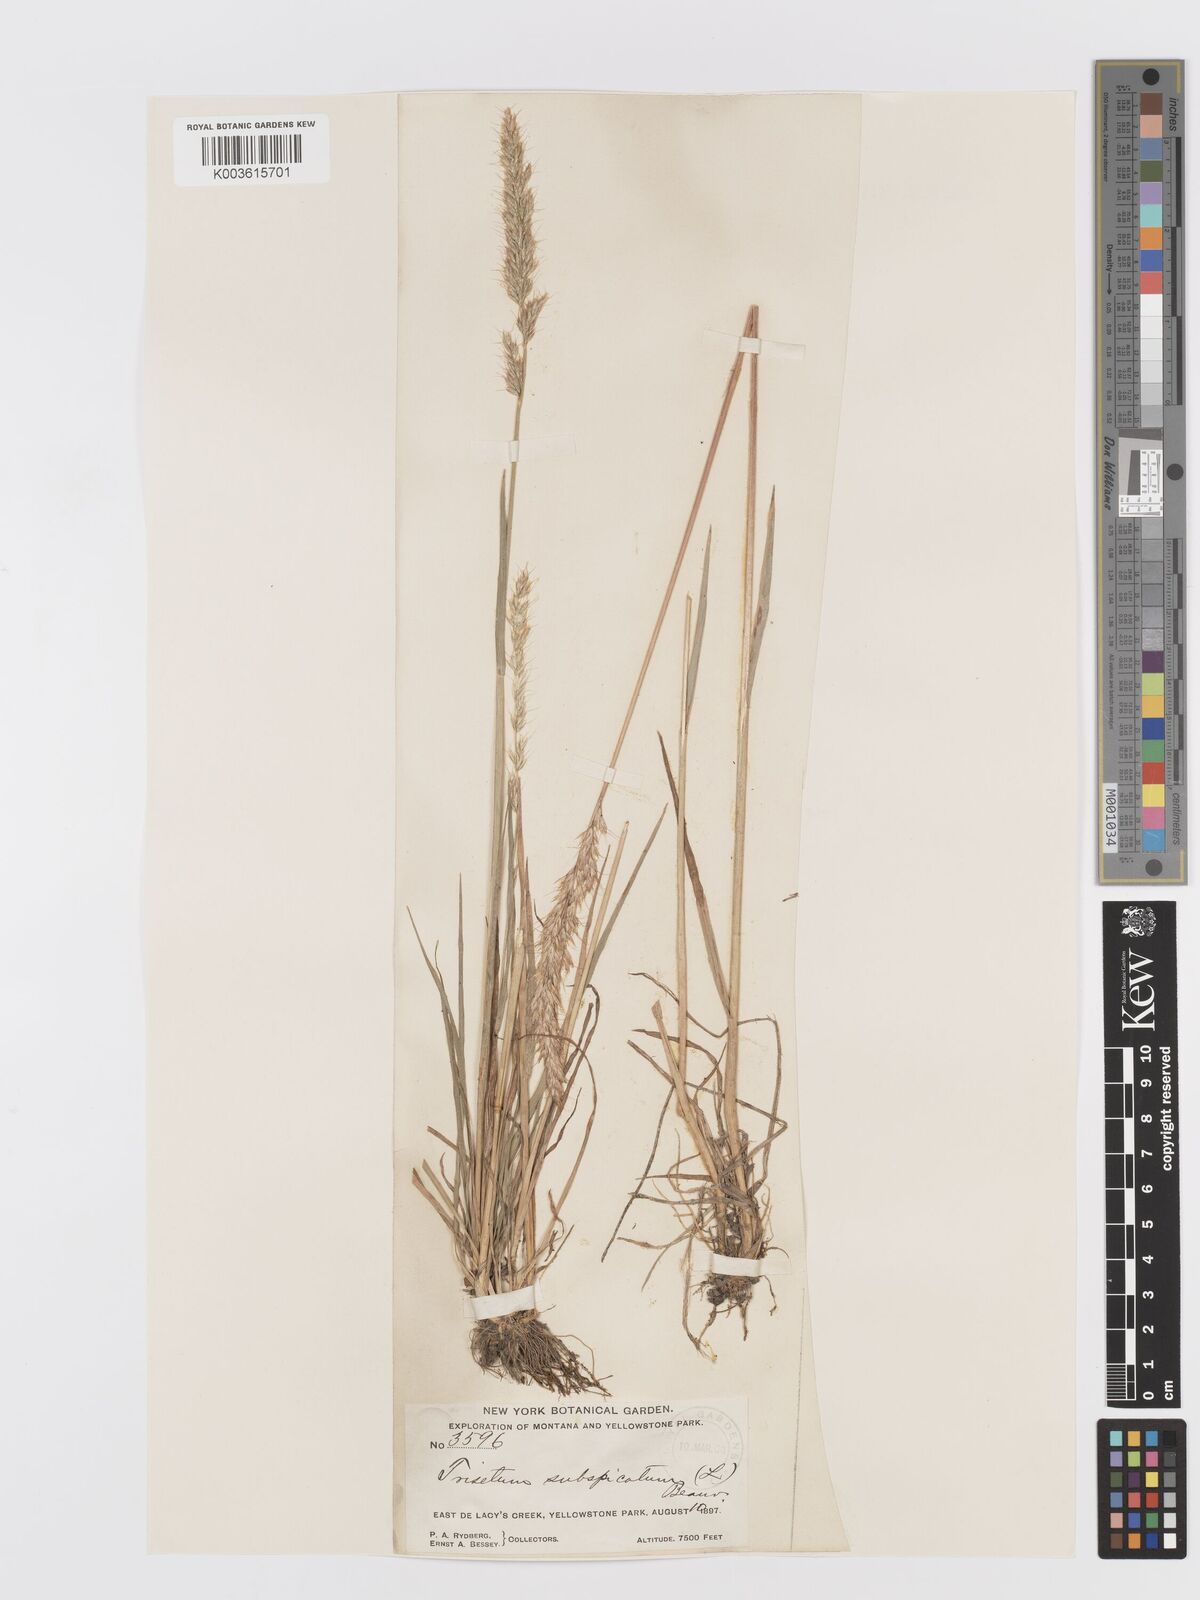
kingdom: Plantae
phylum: Tracheophyta
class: Liliopsida
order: Poales
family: Poaceae
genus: Koeleria
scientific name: Koeleria spicata
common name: Mountain trisetum
